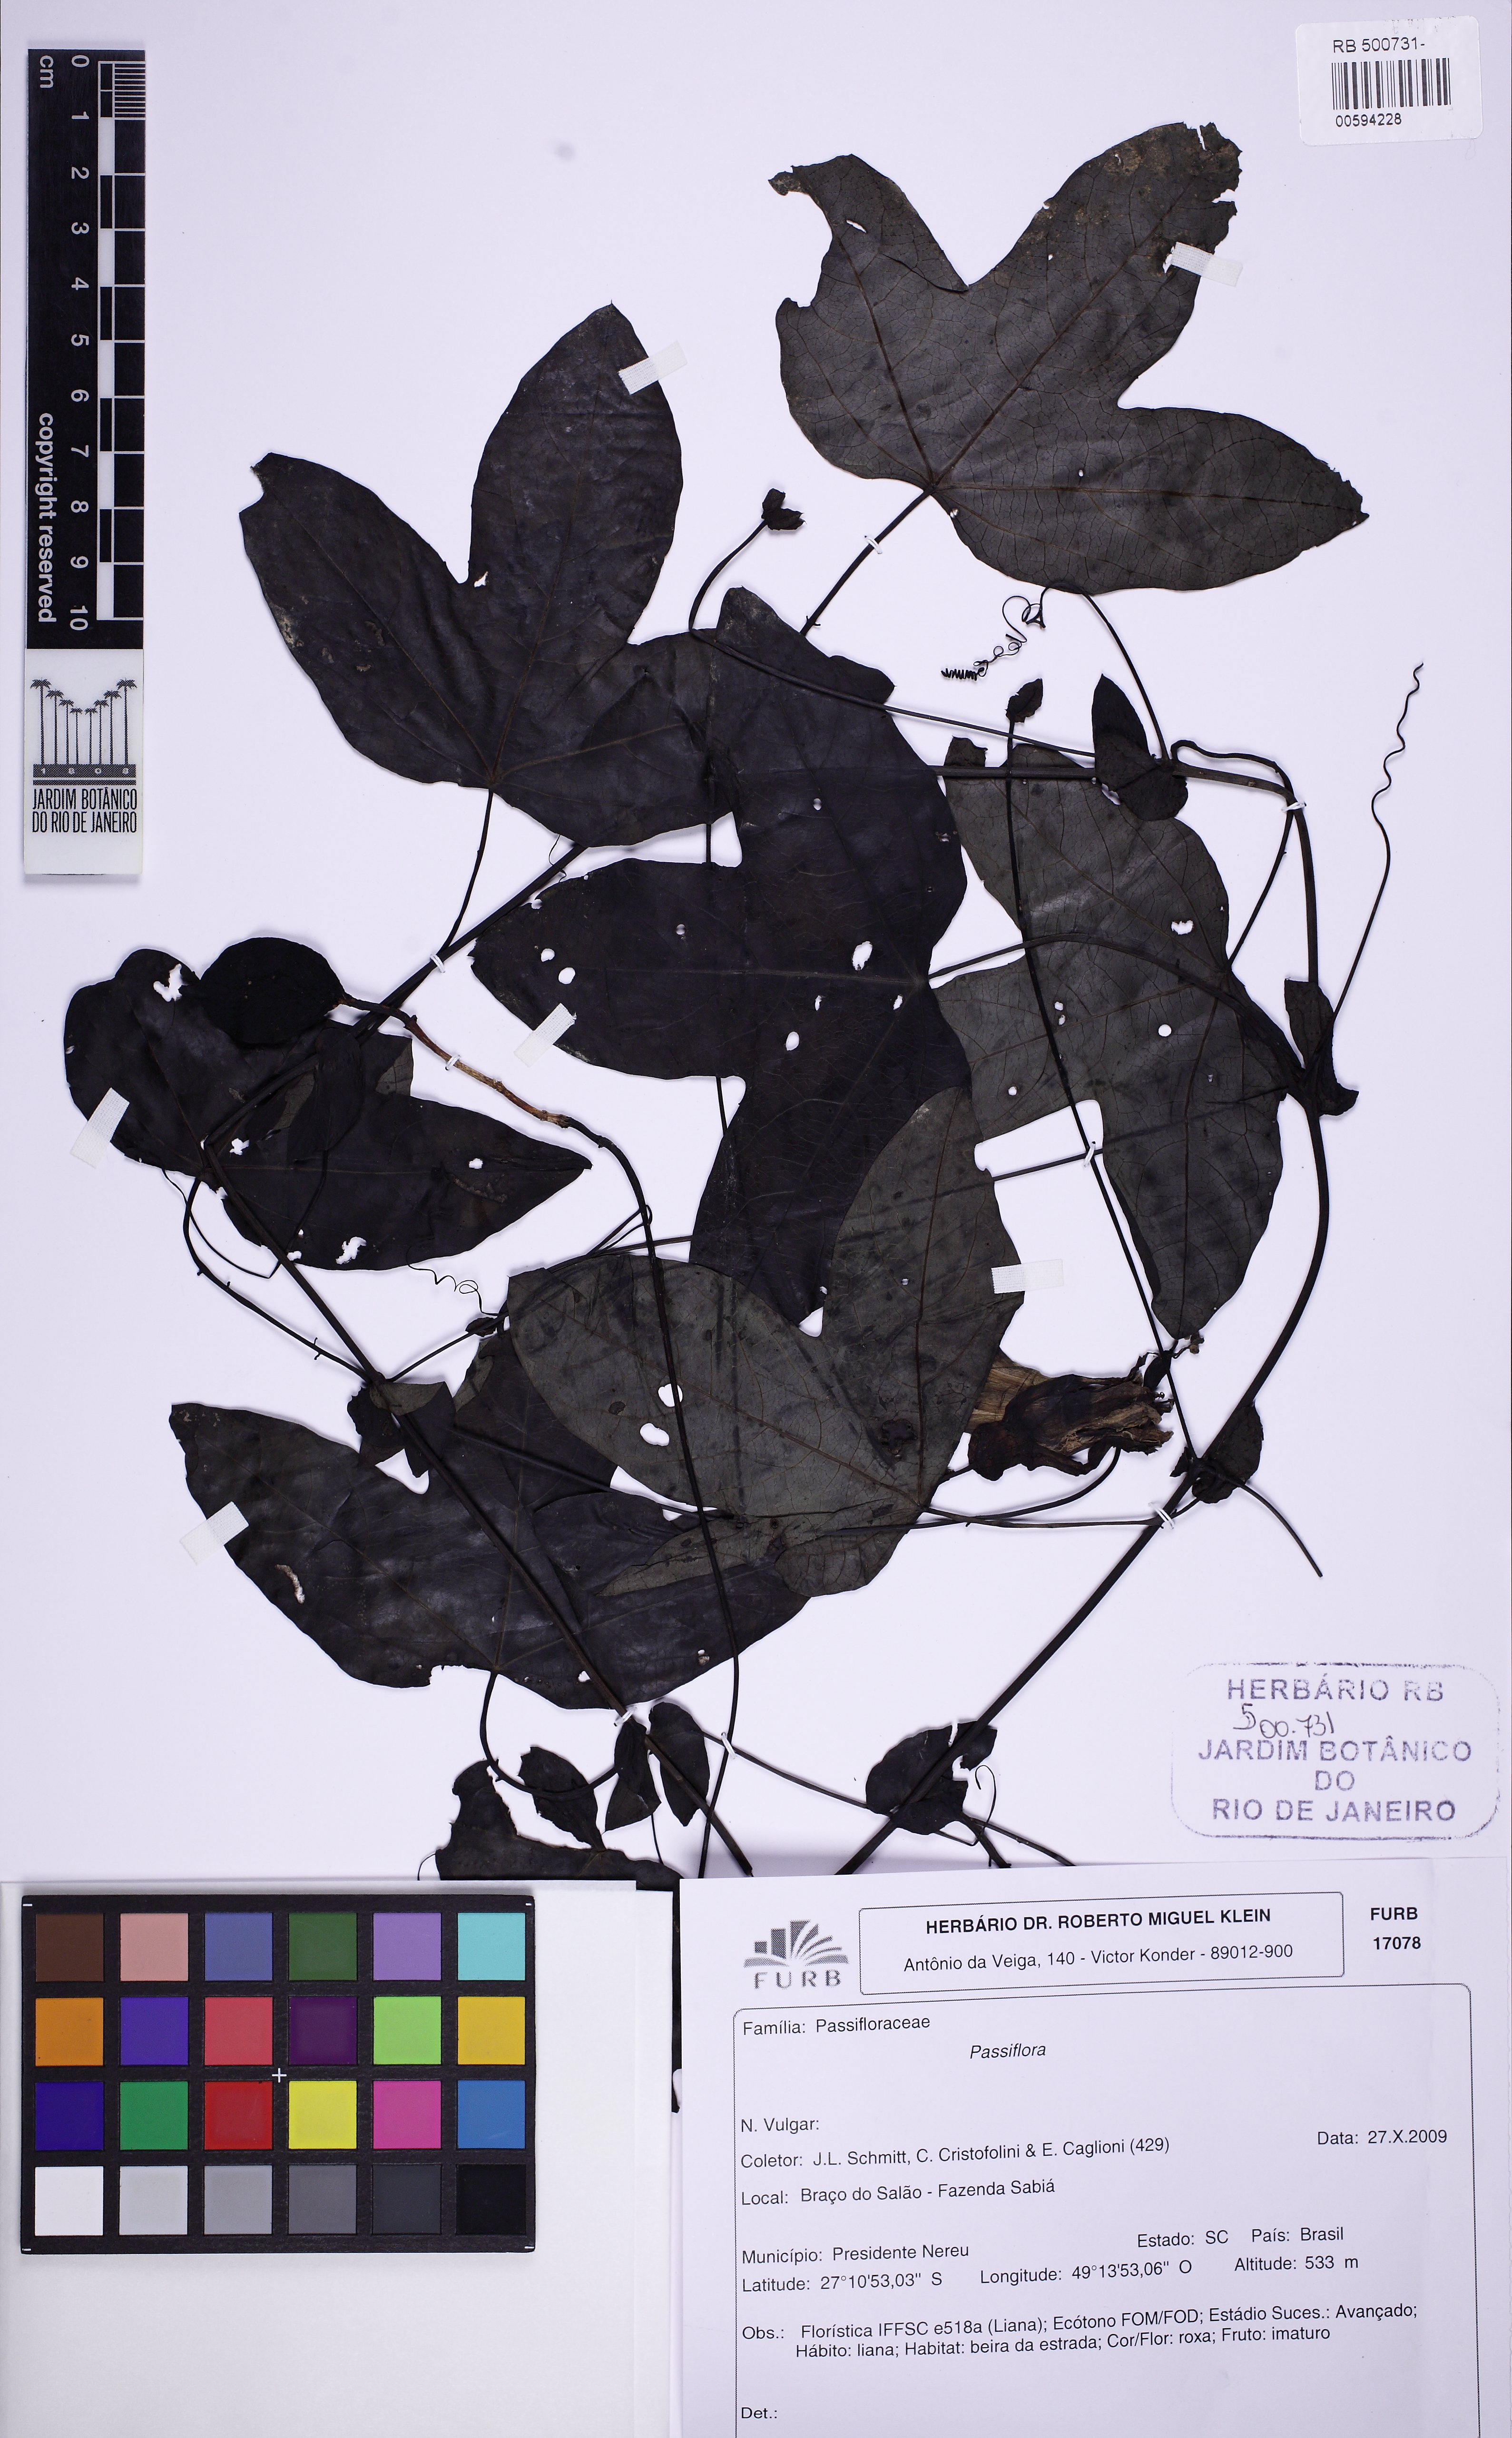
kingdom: Plantae
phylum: Tracheophyta
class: Magnoliopsida
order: Malpighiales
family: Passifloraceae
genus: Passiflora
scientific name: Passiflora amethystina
